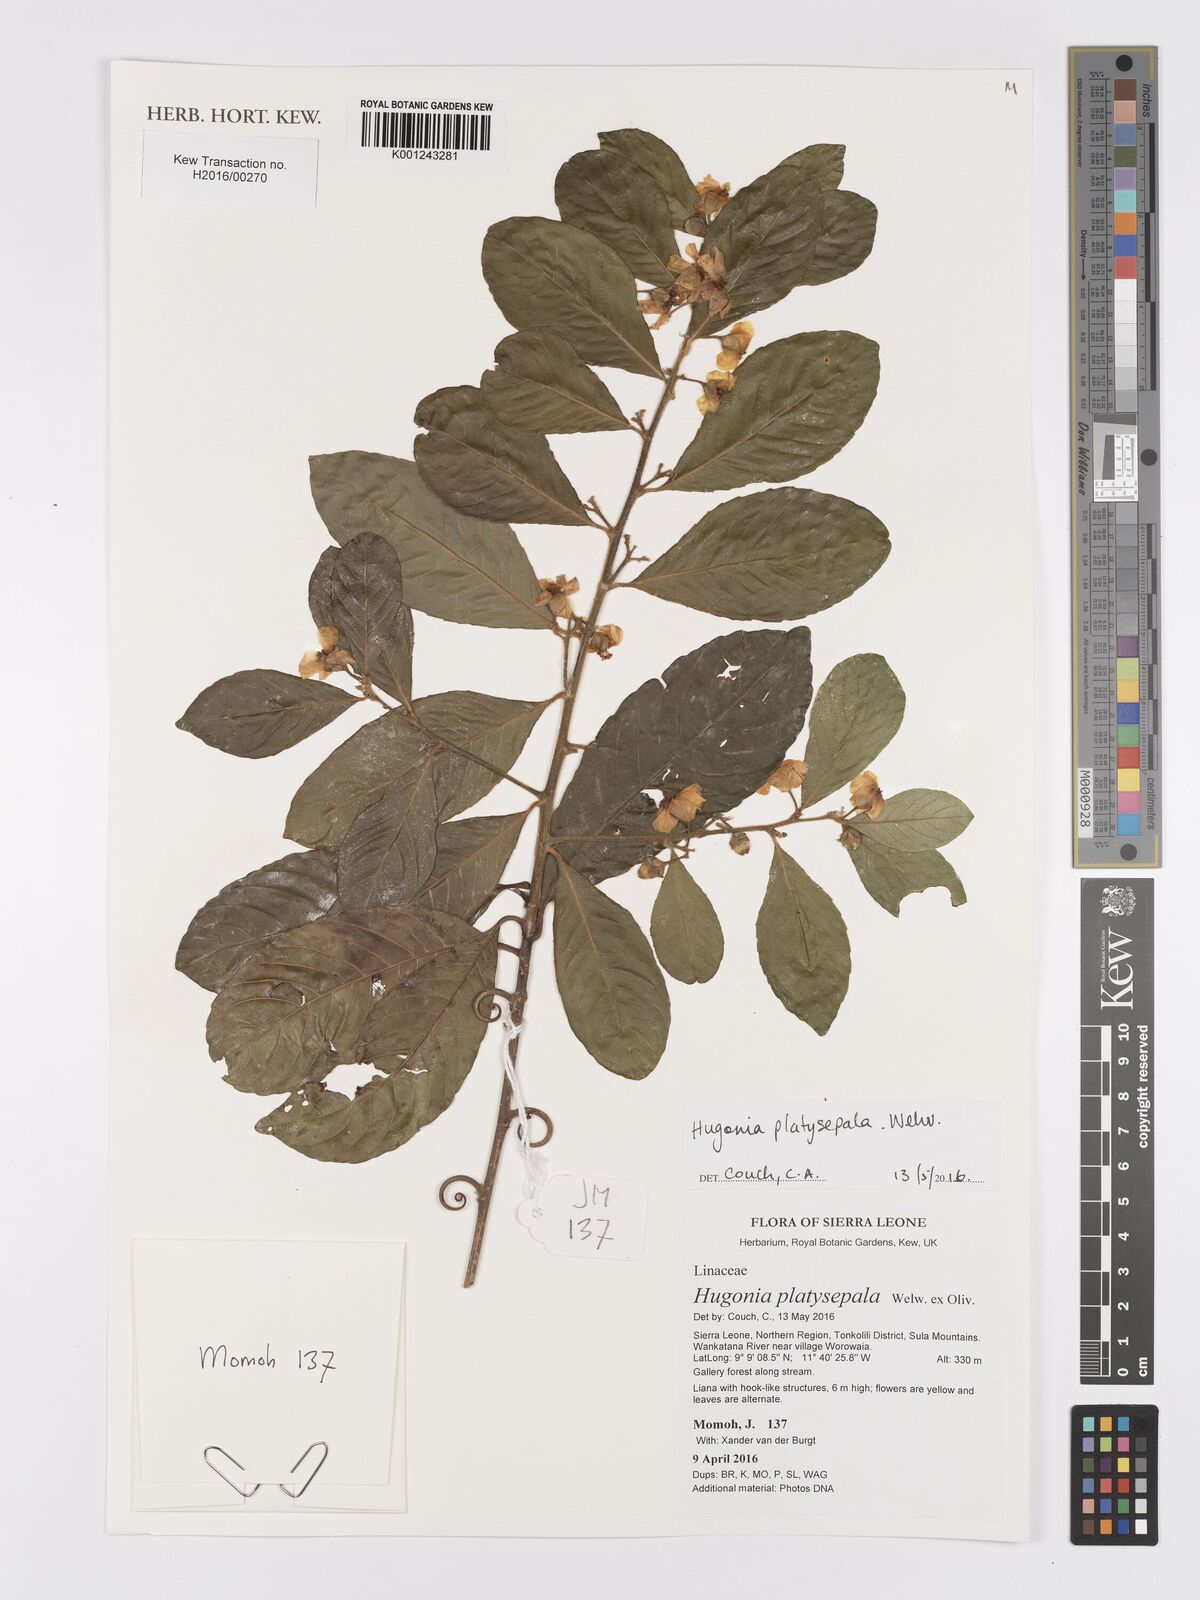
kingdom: Plantae
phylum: Tracheophyta
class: Magnoliopsida
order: Malpighiales
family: Linaceae
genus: Hugonia
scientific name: Hugonia platysepala
